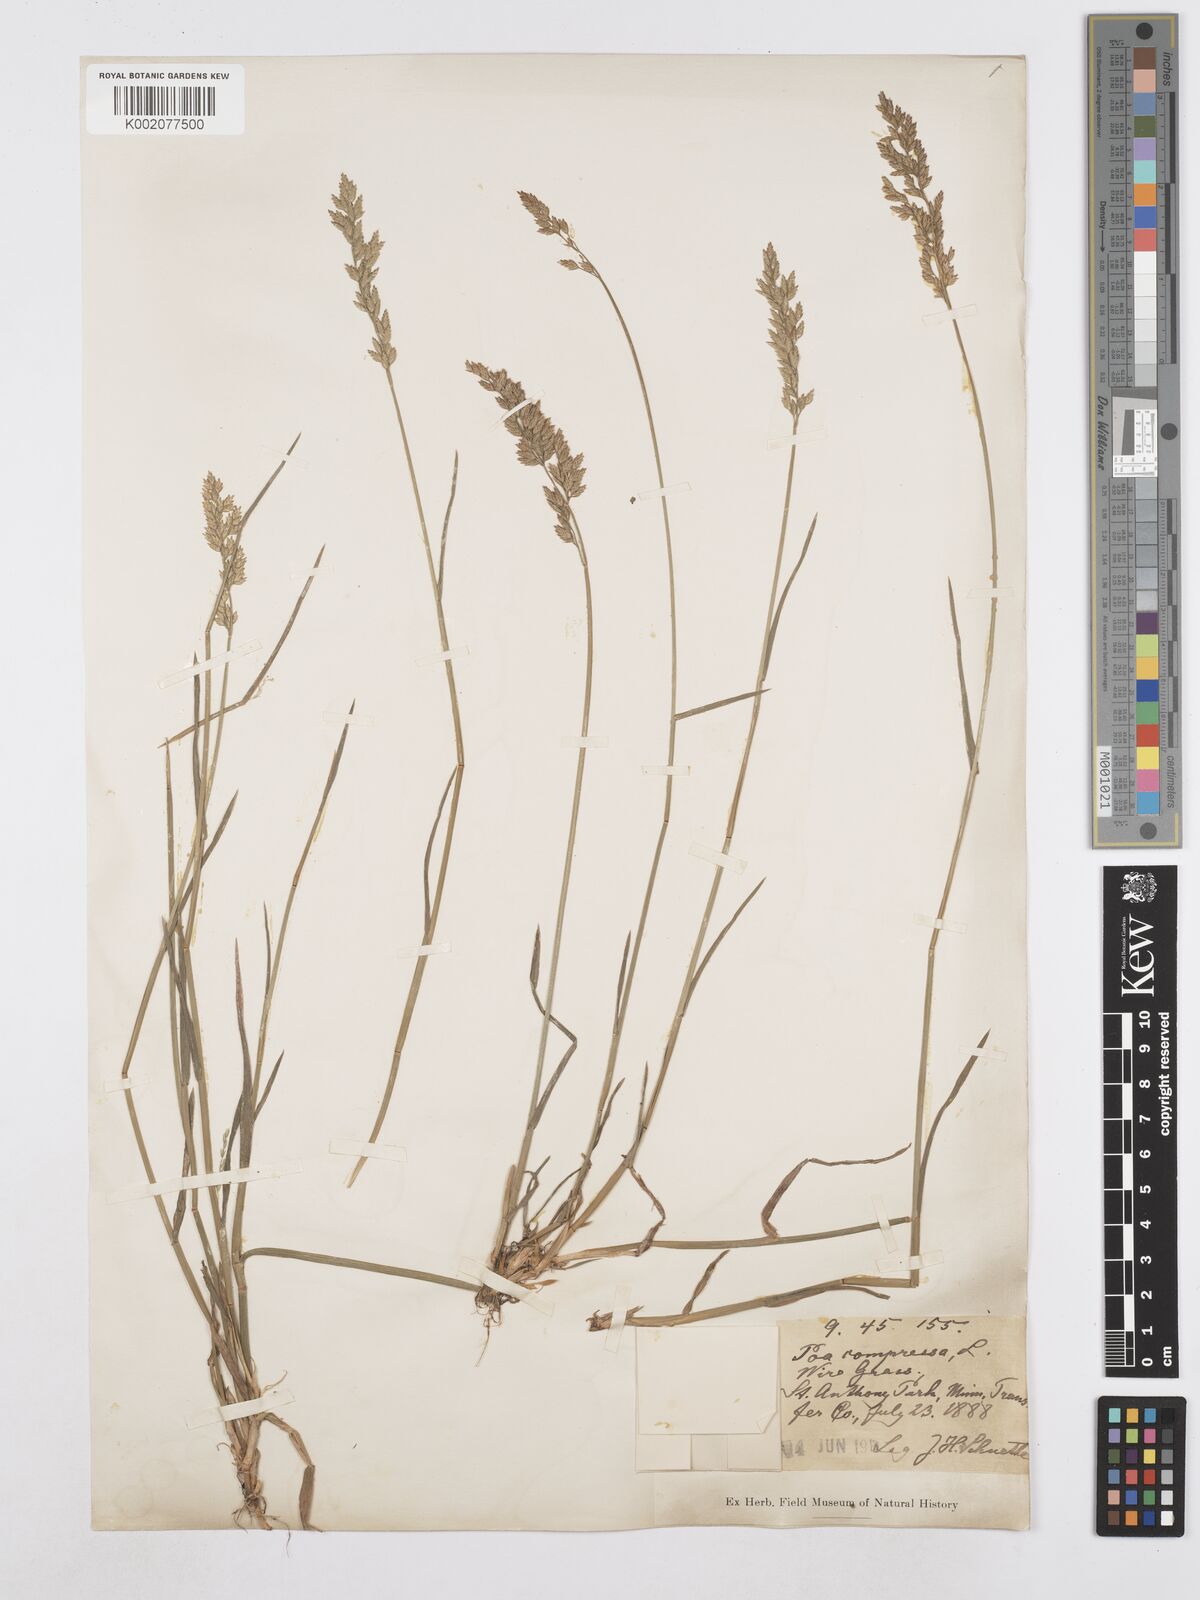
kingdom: Plantae
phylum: Tracheophyta
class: Liliopsida
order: Poales
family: Poaceae
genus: Poa
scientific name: Poa compressa
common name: Canada bluegrass
